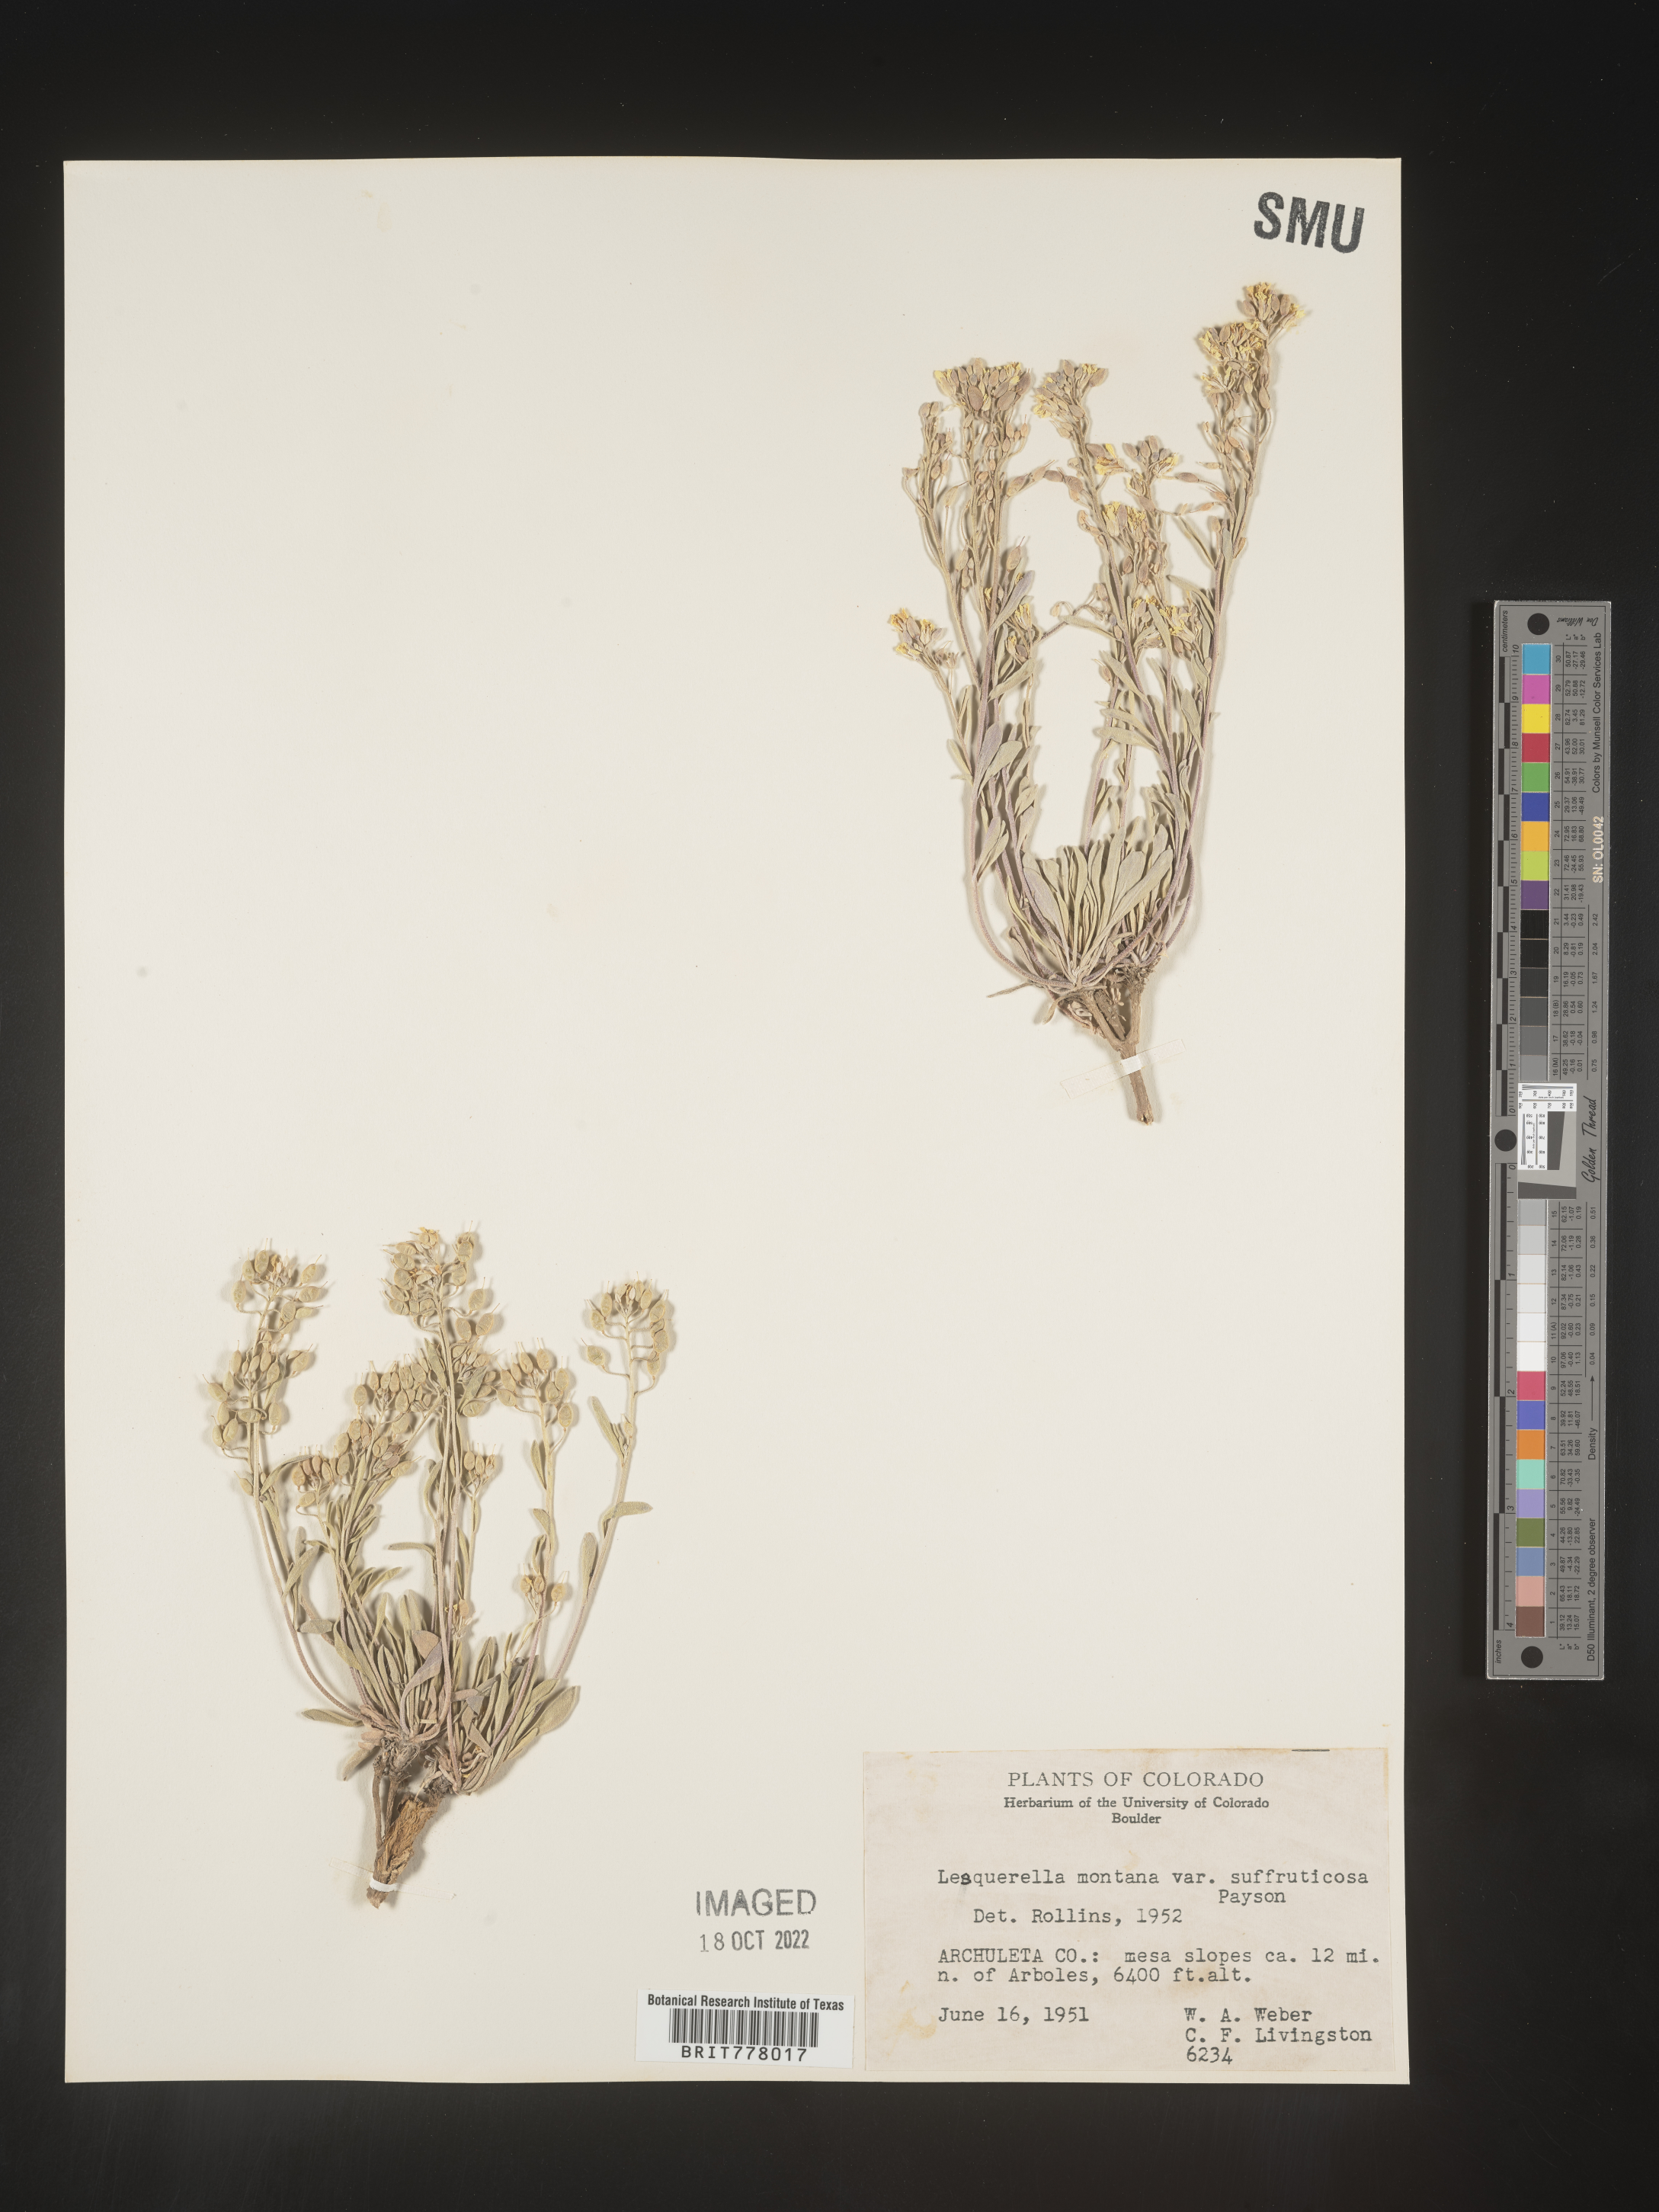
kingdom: Chromista
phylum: Cercozoa
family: Psammonobiotidae
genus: Lesquerella
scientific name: Lesquerella
